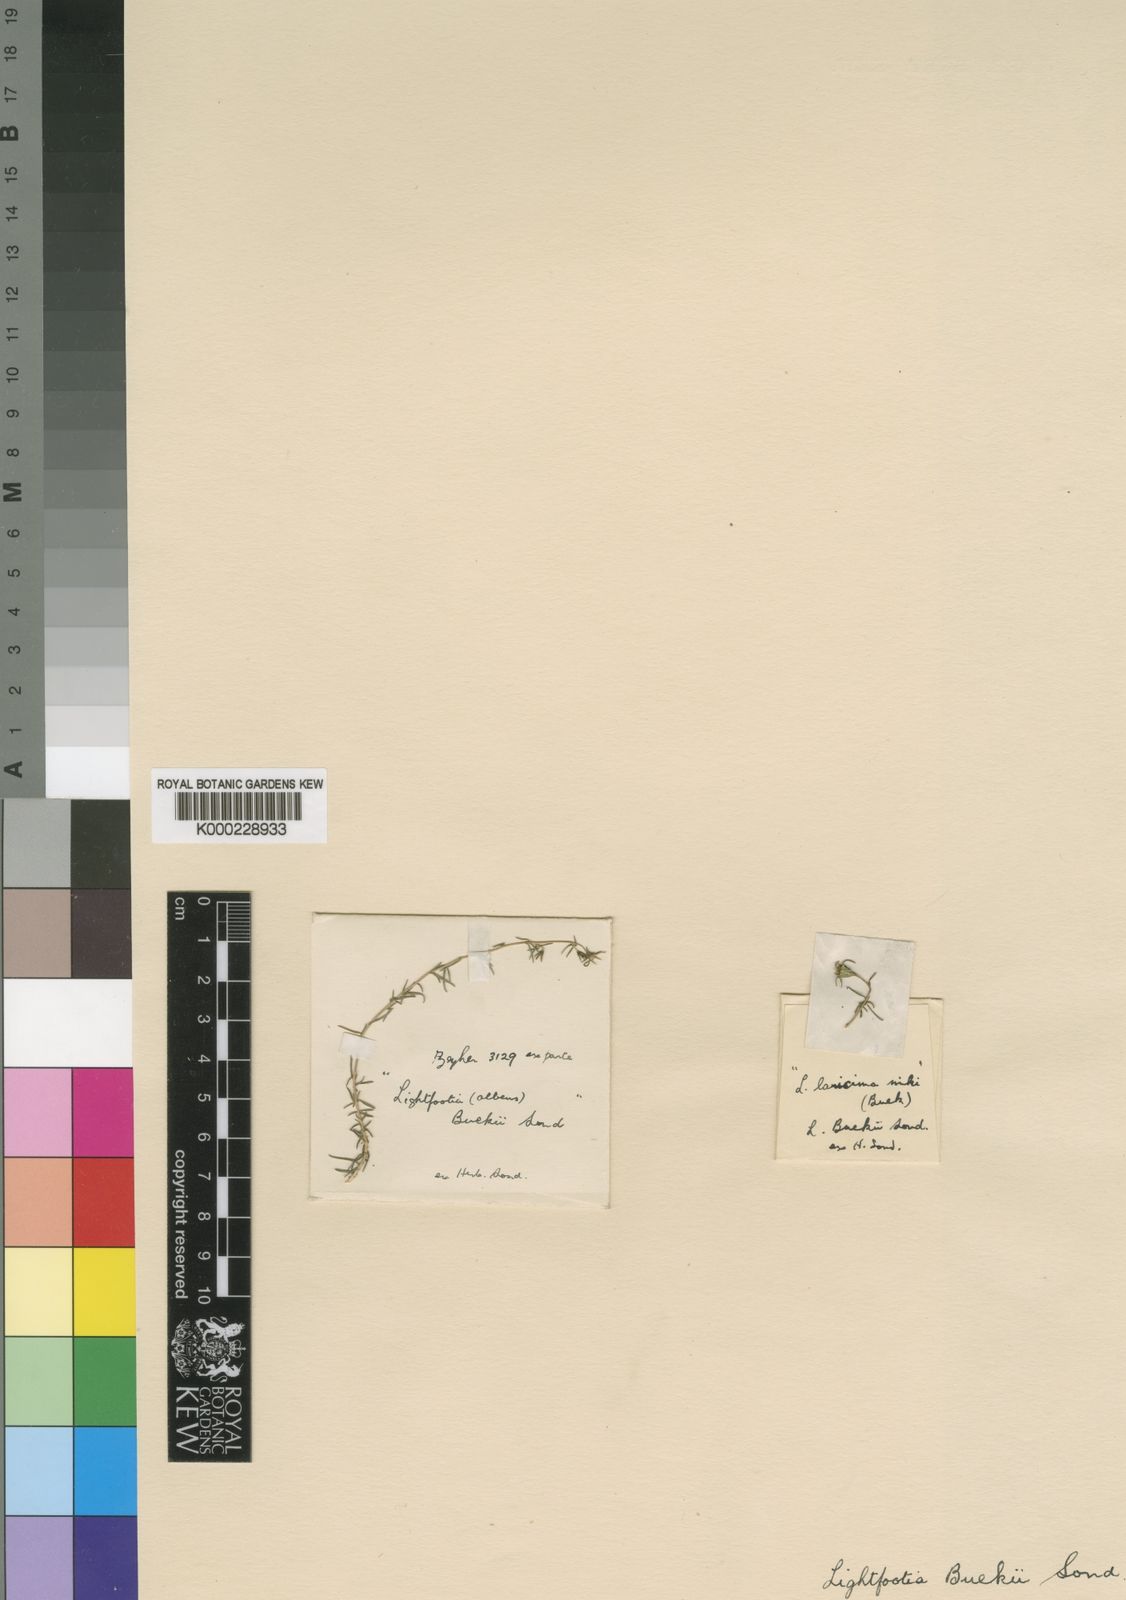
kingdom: Plantae
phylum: Tracheophyta
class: Magnoliopsida
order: Asterales
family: Campanulaceae
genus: Wahlenbergia
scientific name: Wahlenbergia thunbergii
